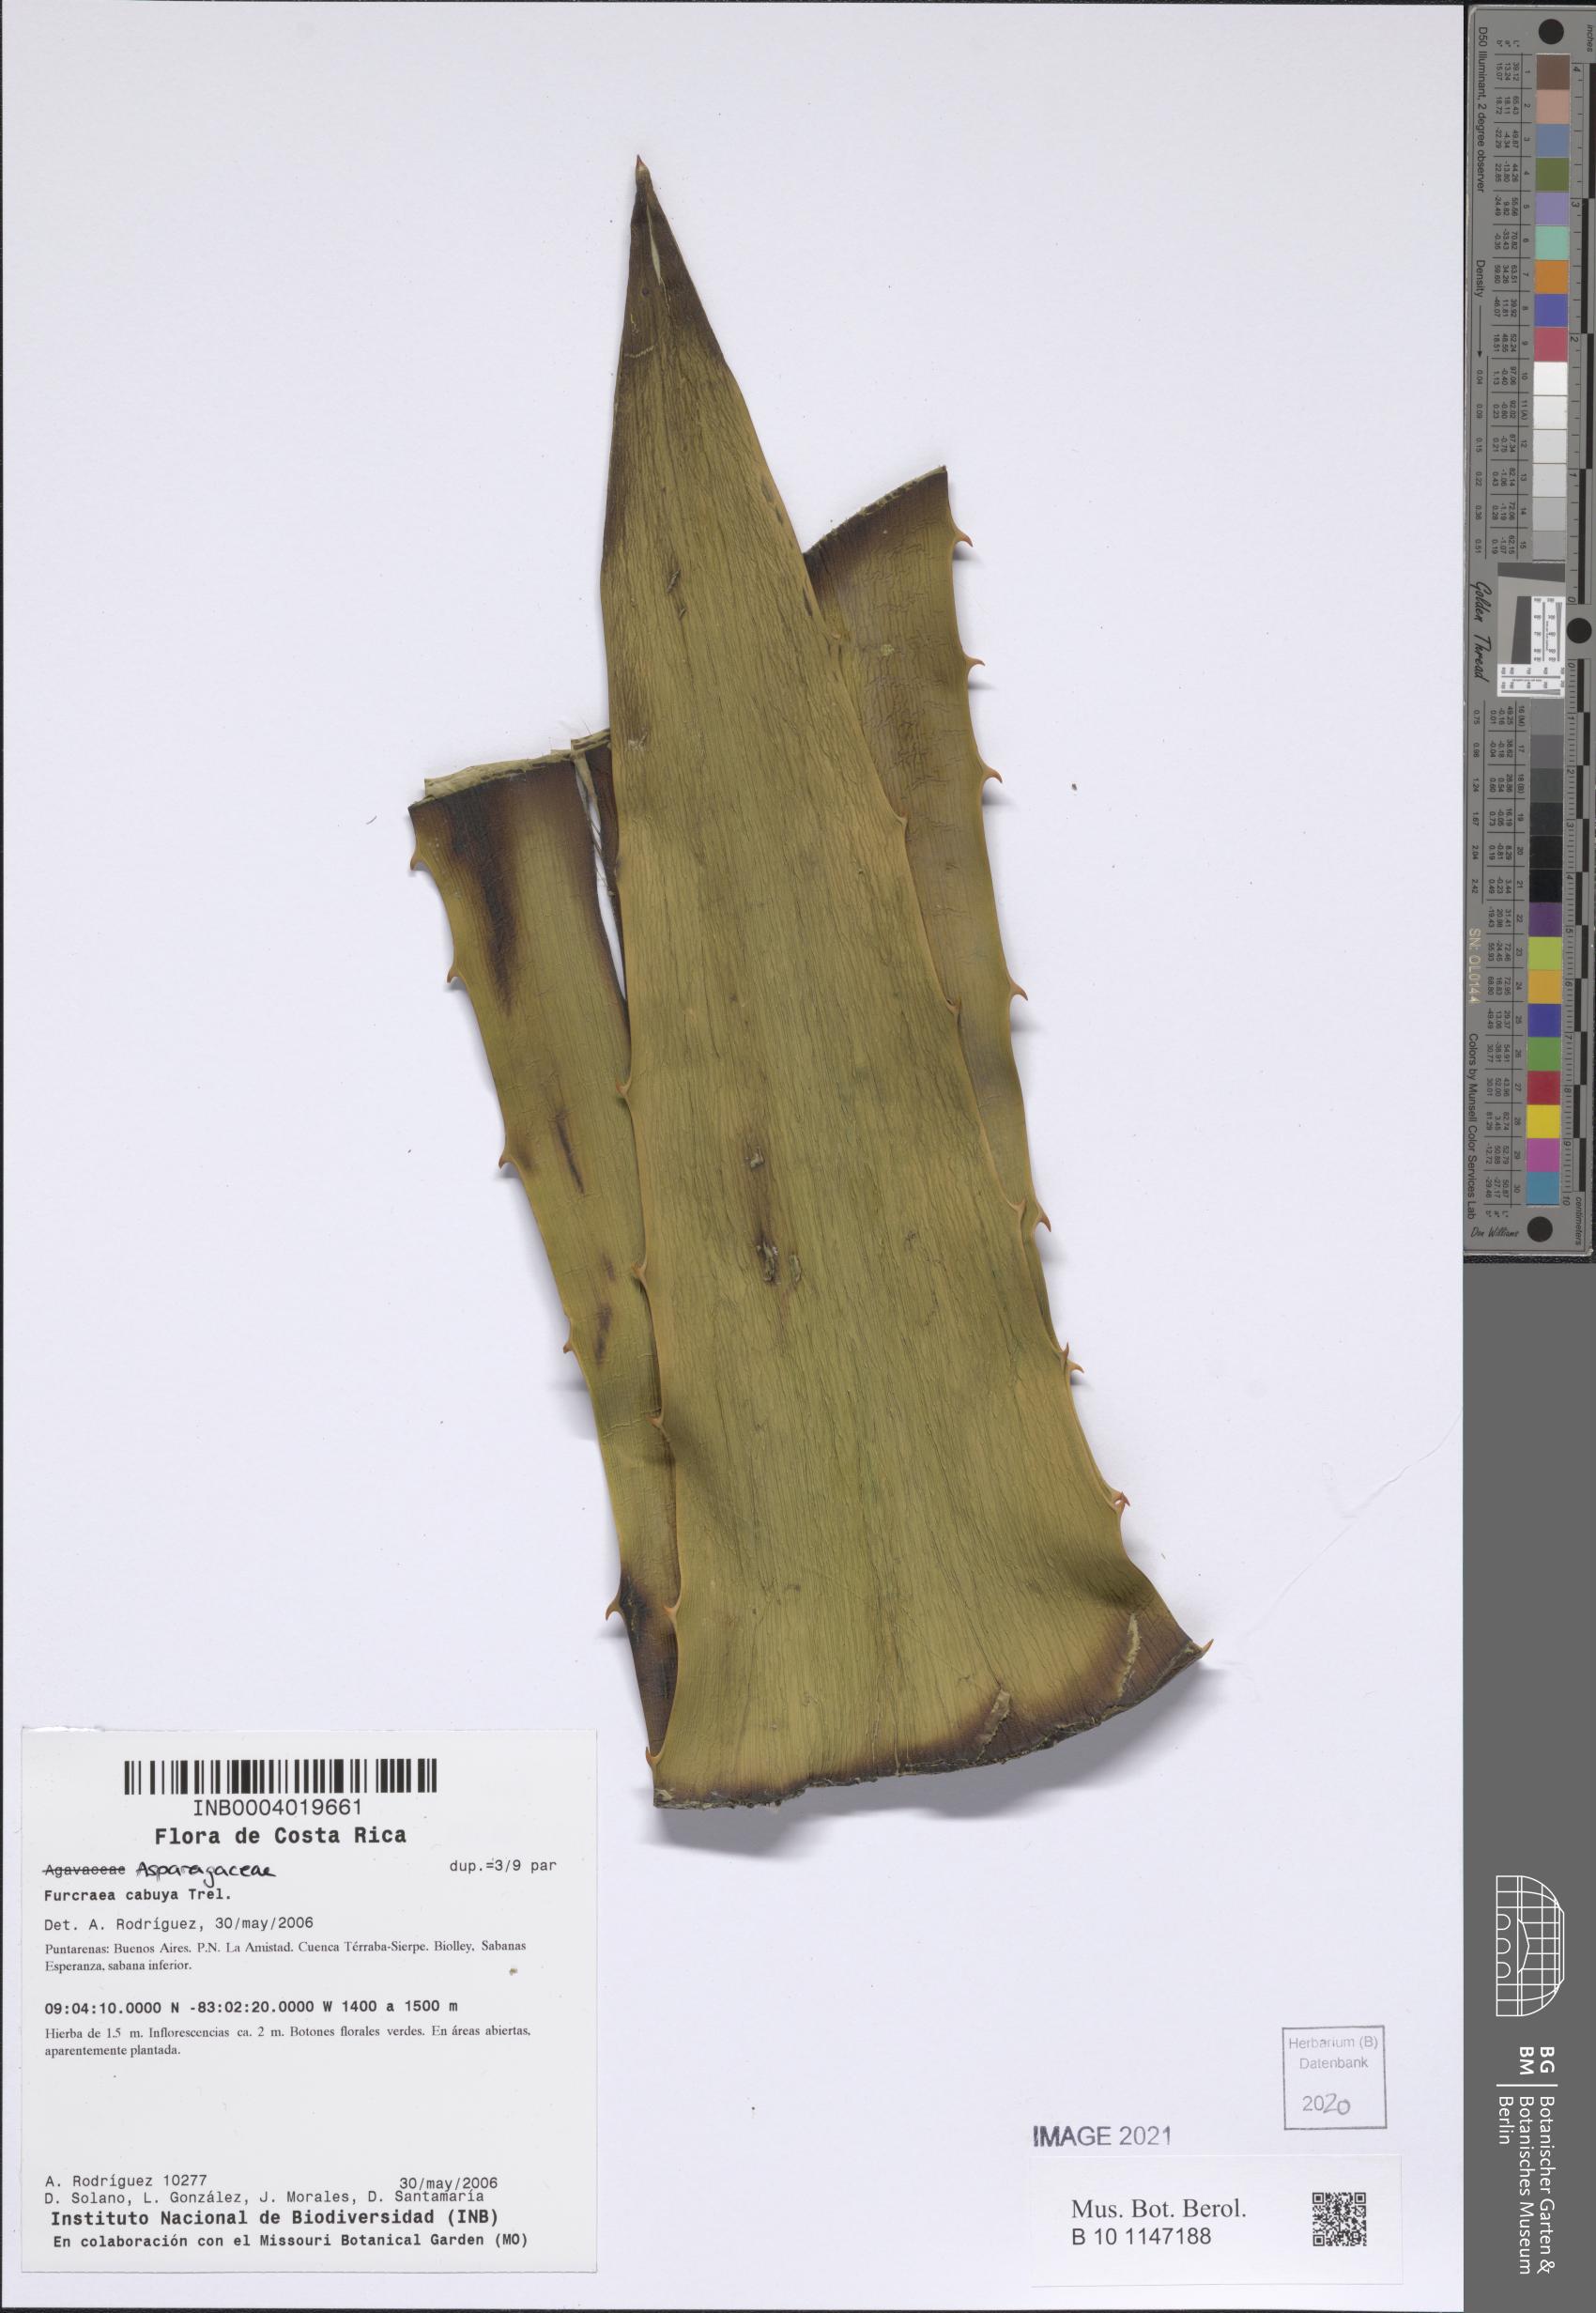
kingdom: Plantae
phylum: Tracheophyta
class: Liliopsida
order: Asparagales
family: Asparagaceae
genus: Furcraea
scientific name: Furcraea cabuya
